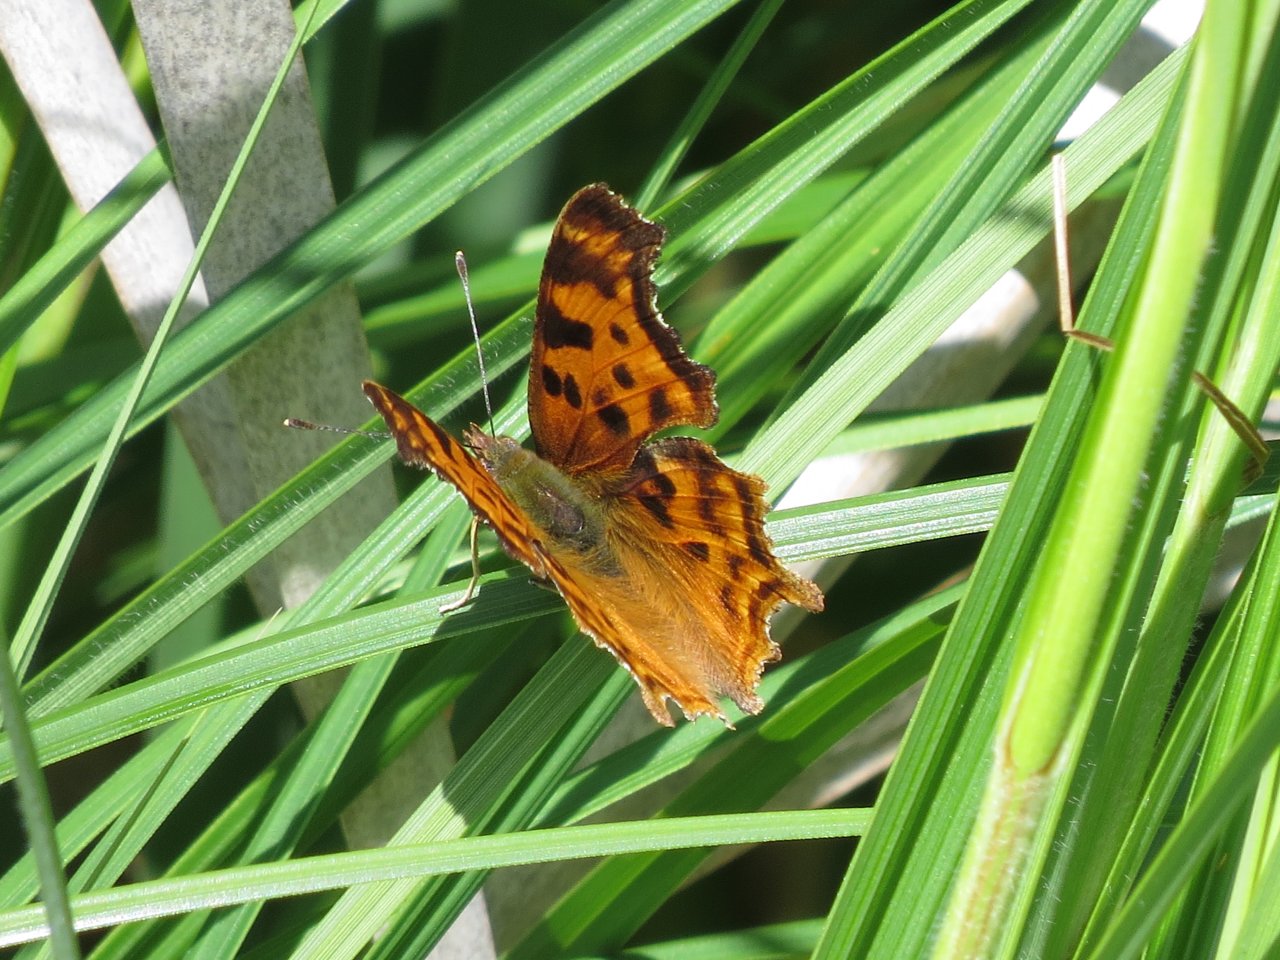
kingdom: Animalia
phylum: Arthropoda
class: Insecta
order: Lepidoptera
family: Nymphalidae
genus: Polygonia
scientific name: Polygonia satyrus
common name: Satyr Comma
